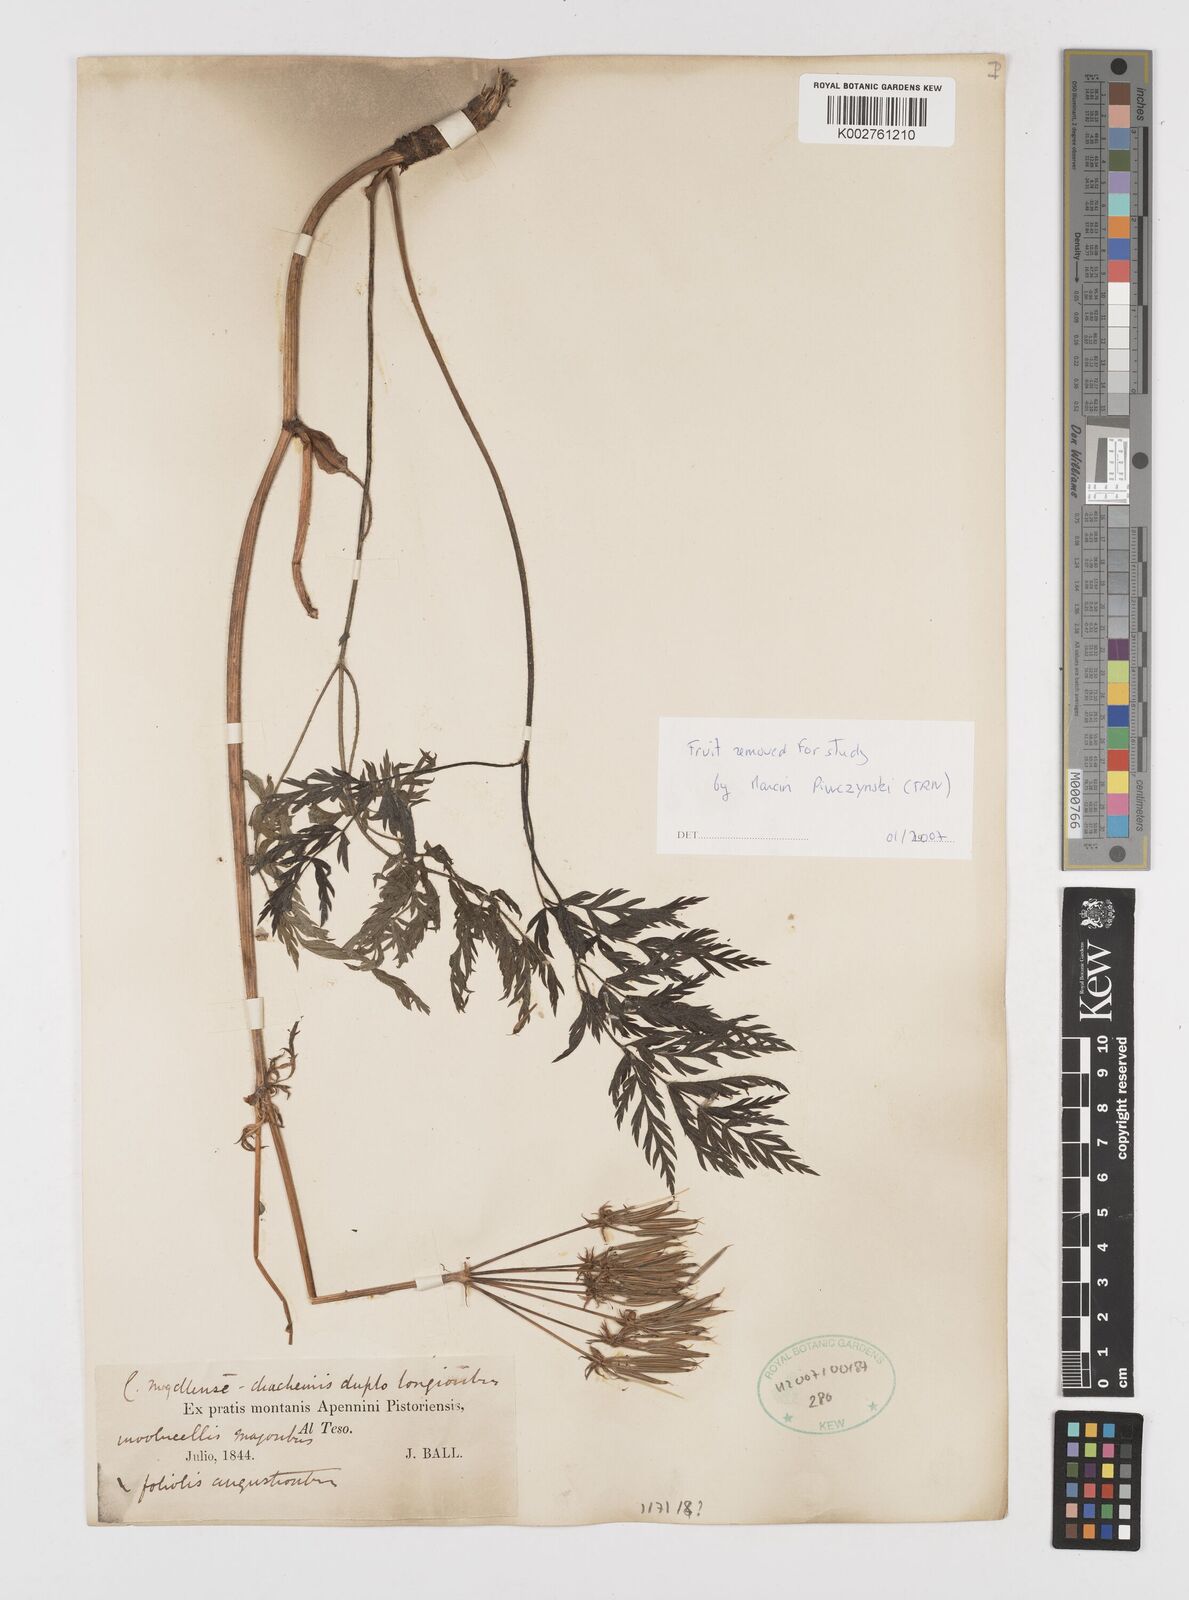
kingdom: Plantae
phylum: Tracheophyta
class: Magnoliopsida
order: Apiales
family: Apiaceae
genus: Chaerophyllum
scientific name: Chaerophyllum elegans
